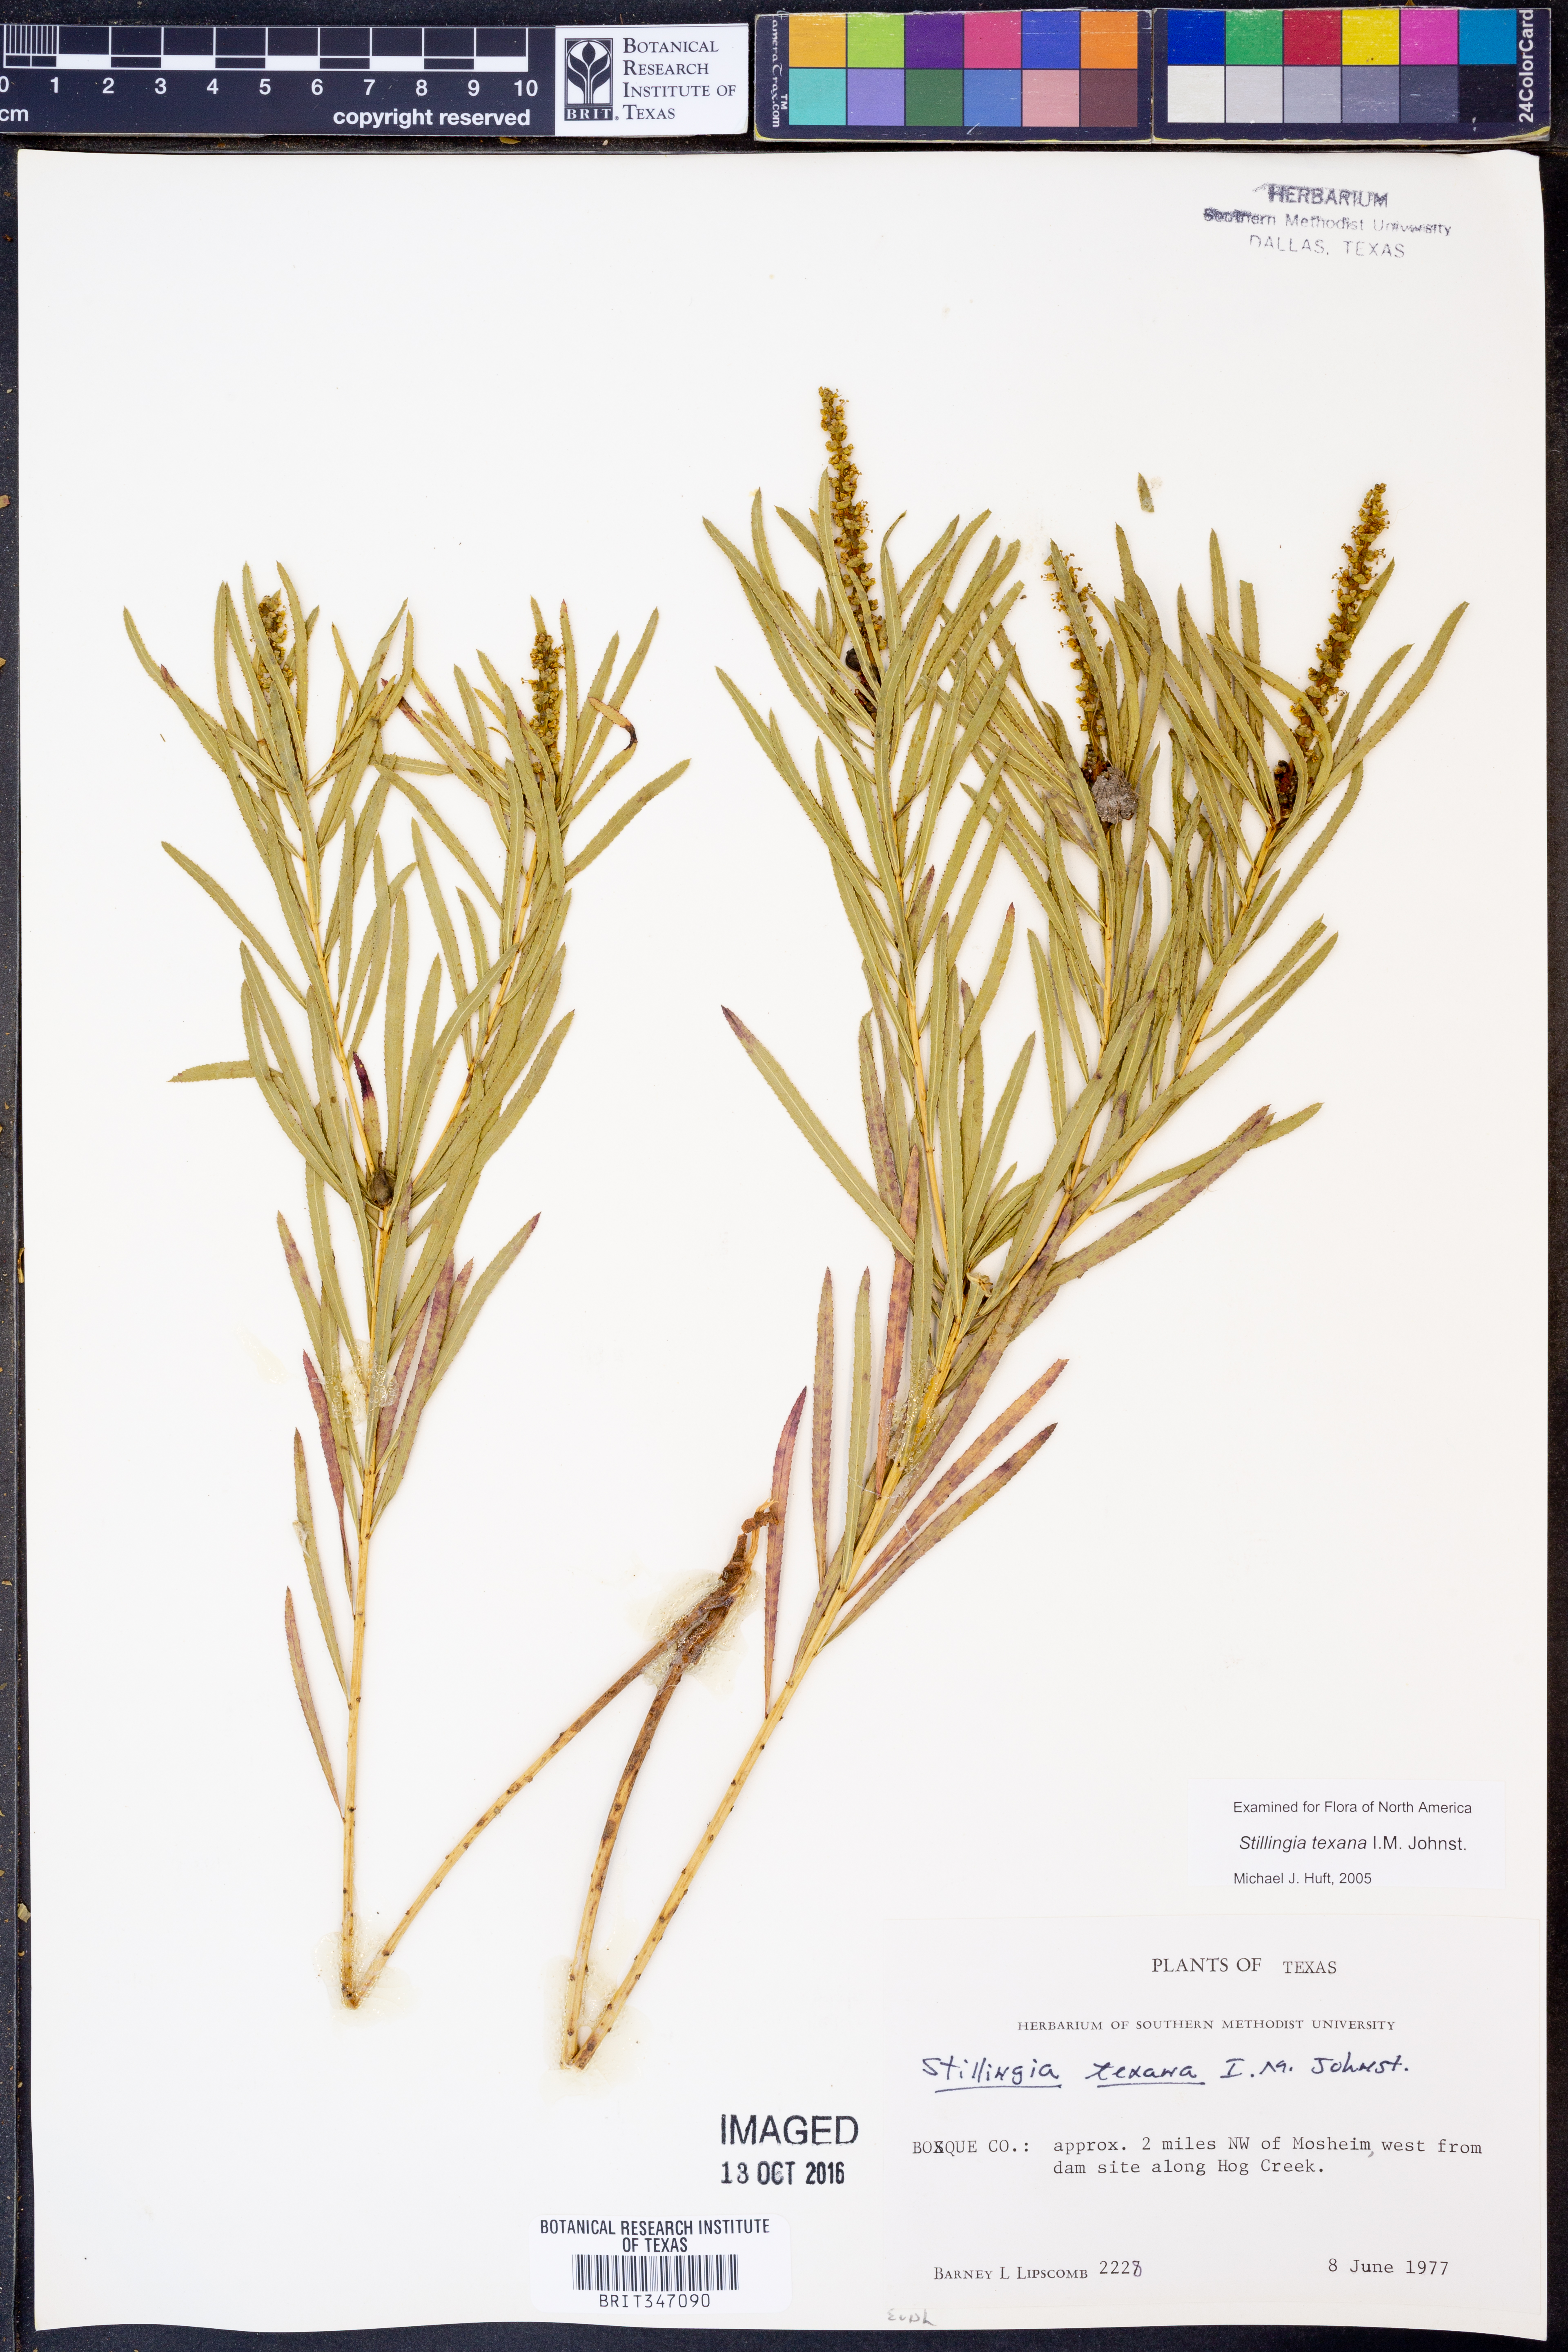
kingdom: Plantae
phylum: Tracheophyta
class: Magnoliopsida
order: Malpighiales
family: Euphorbiaceae
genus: Stillingia
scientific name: Stillingia texana
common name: Texas stillingia
